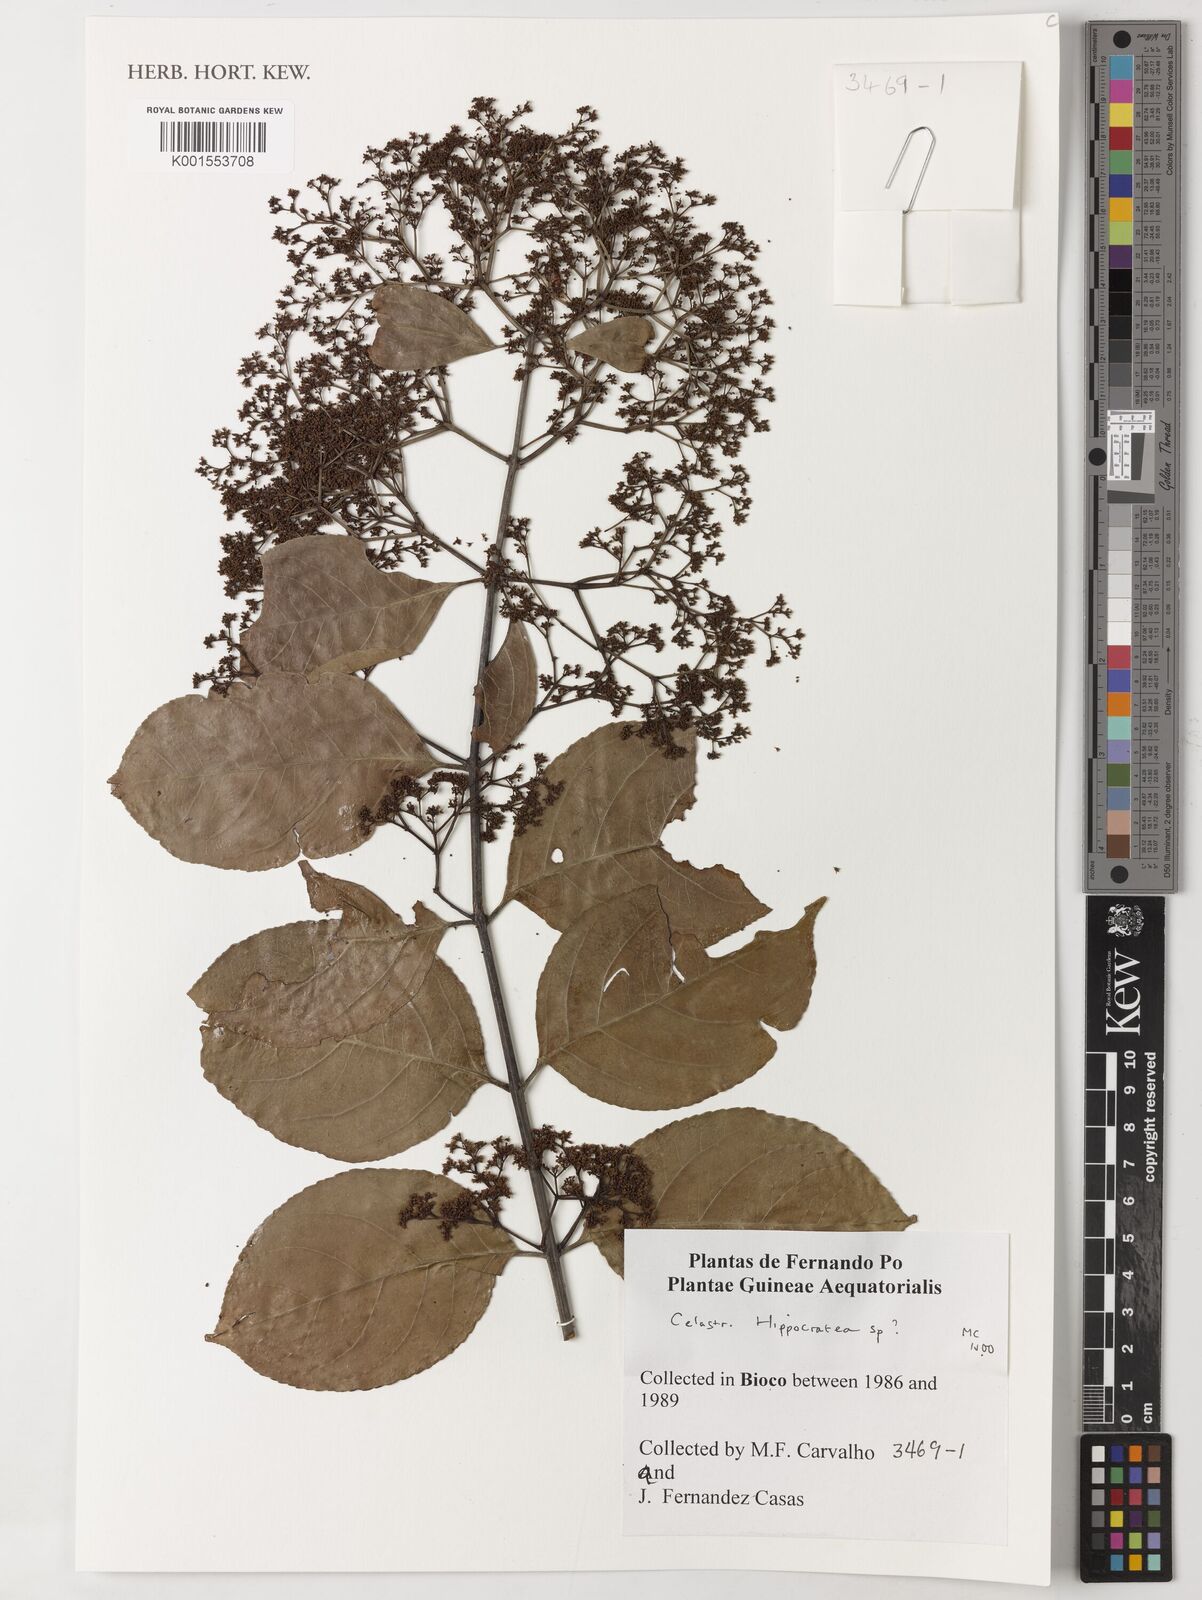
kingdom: Plantae
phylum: Tracheophyta
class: Magnoliopsida
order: Celastrales
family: Celastraceae
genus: Hippocratea
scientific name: Hippocratea
